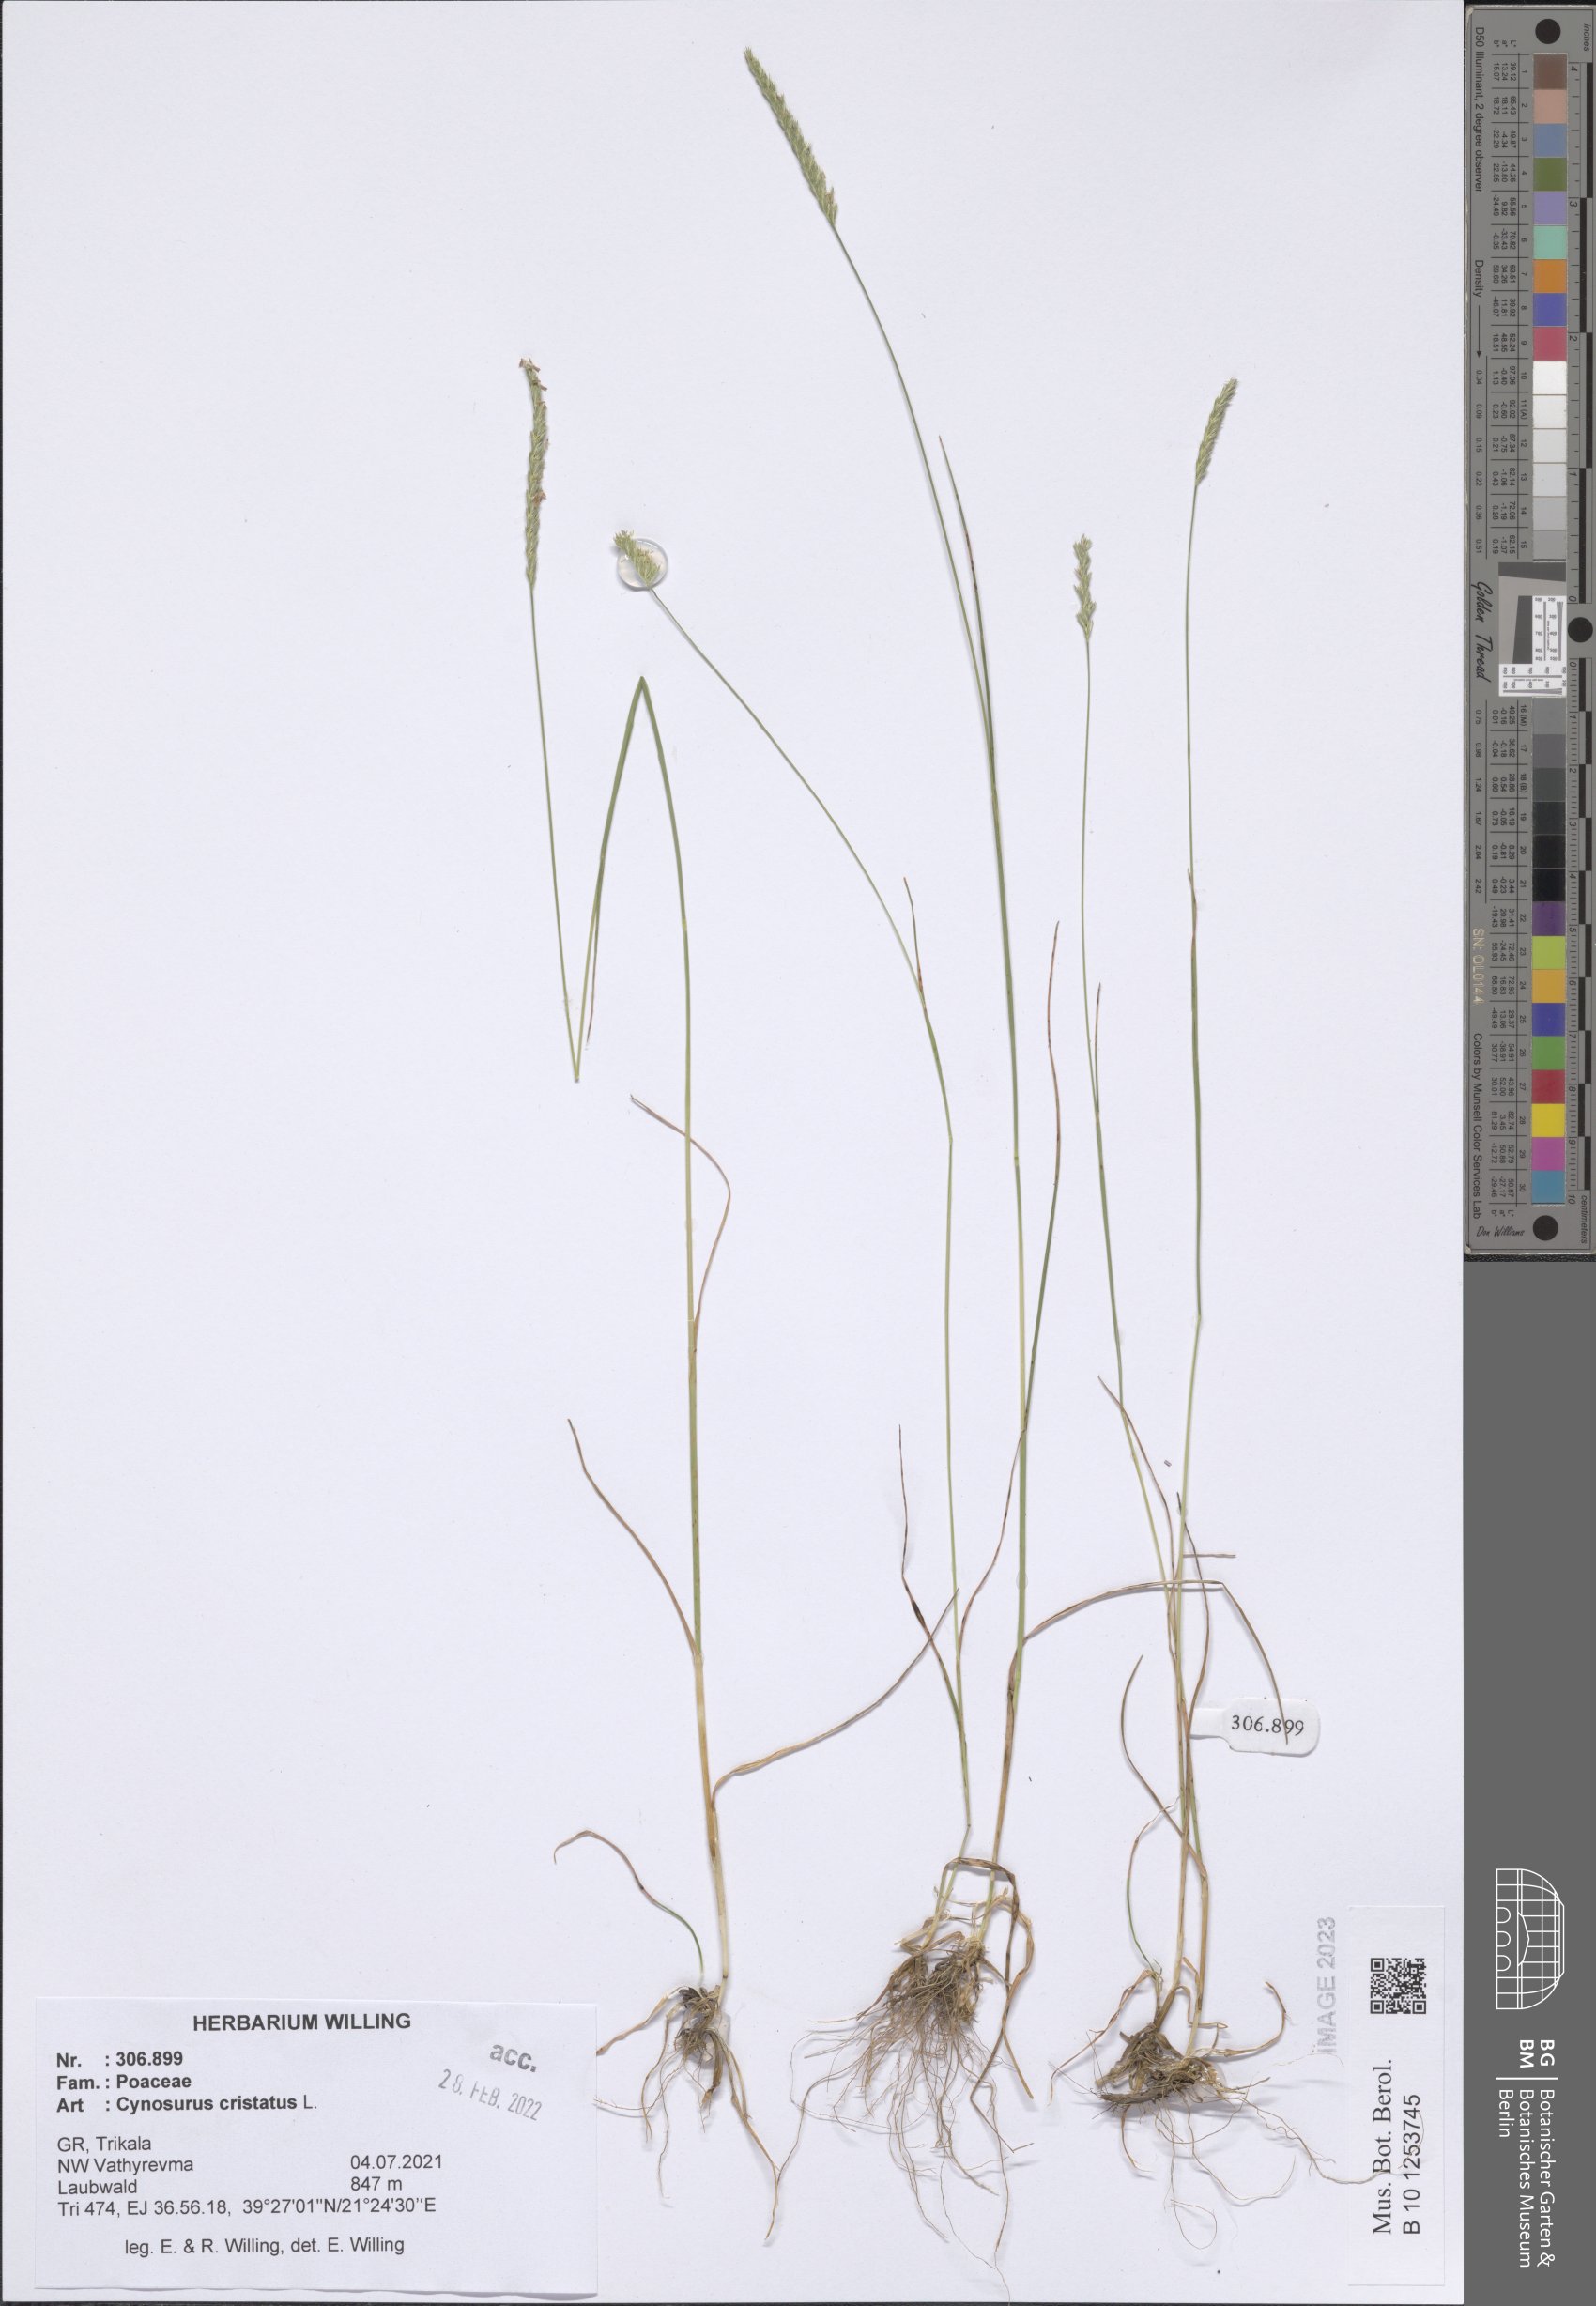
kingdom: Plantae
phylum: Tracheophyta
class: Liliopsida
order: Poales
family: Poaceae
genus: Cynosurus
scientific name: Cynosurus cristatus
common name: Crested dog's-tail
